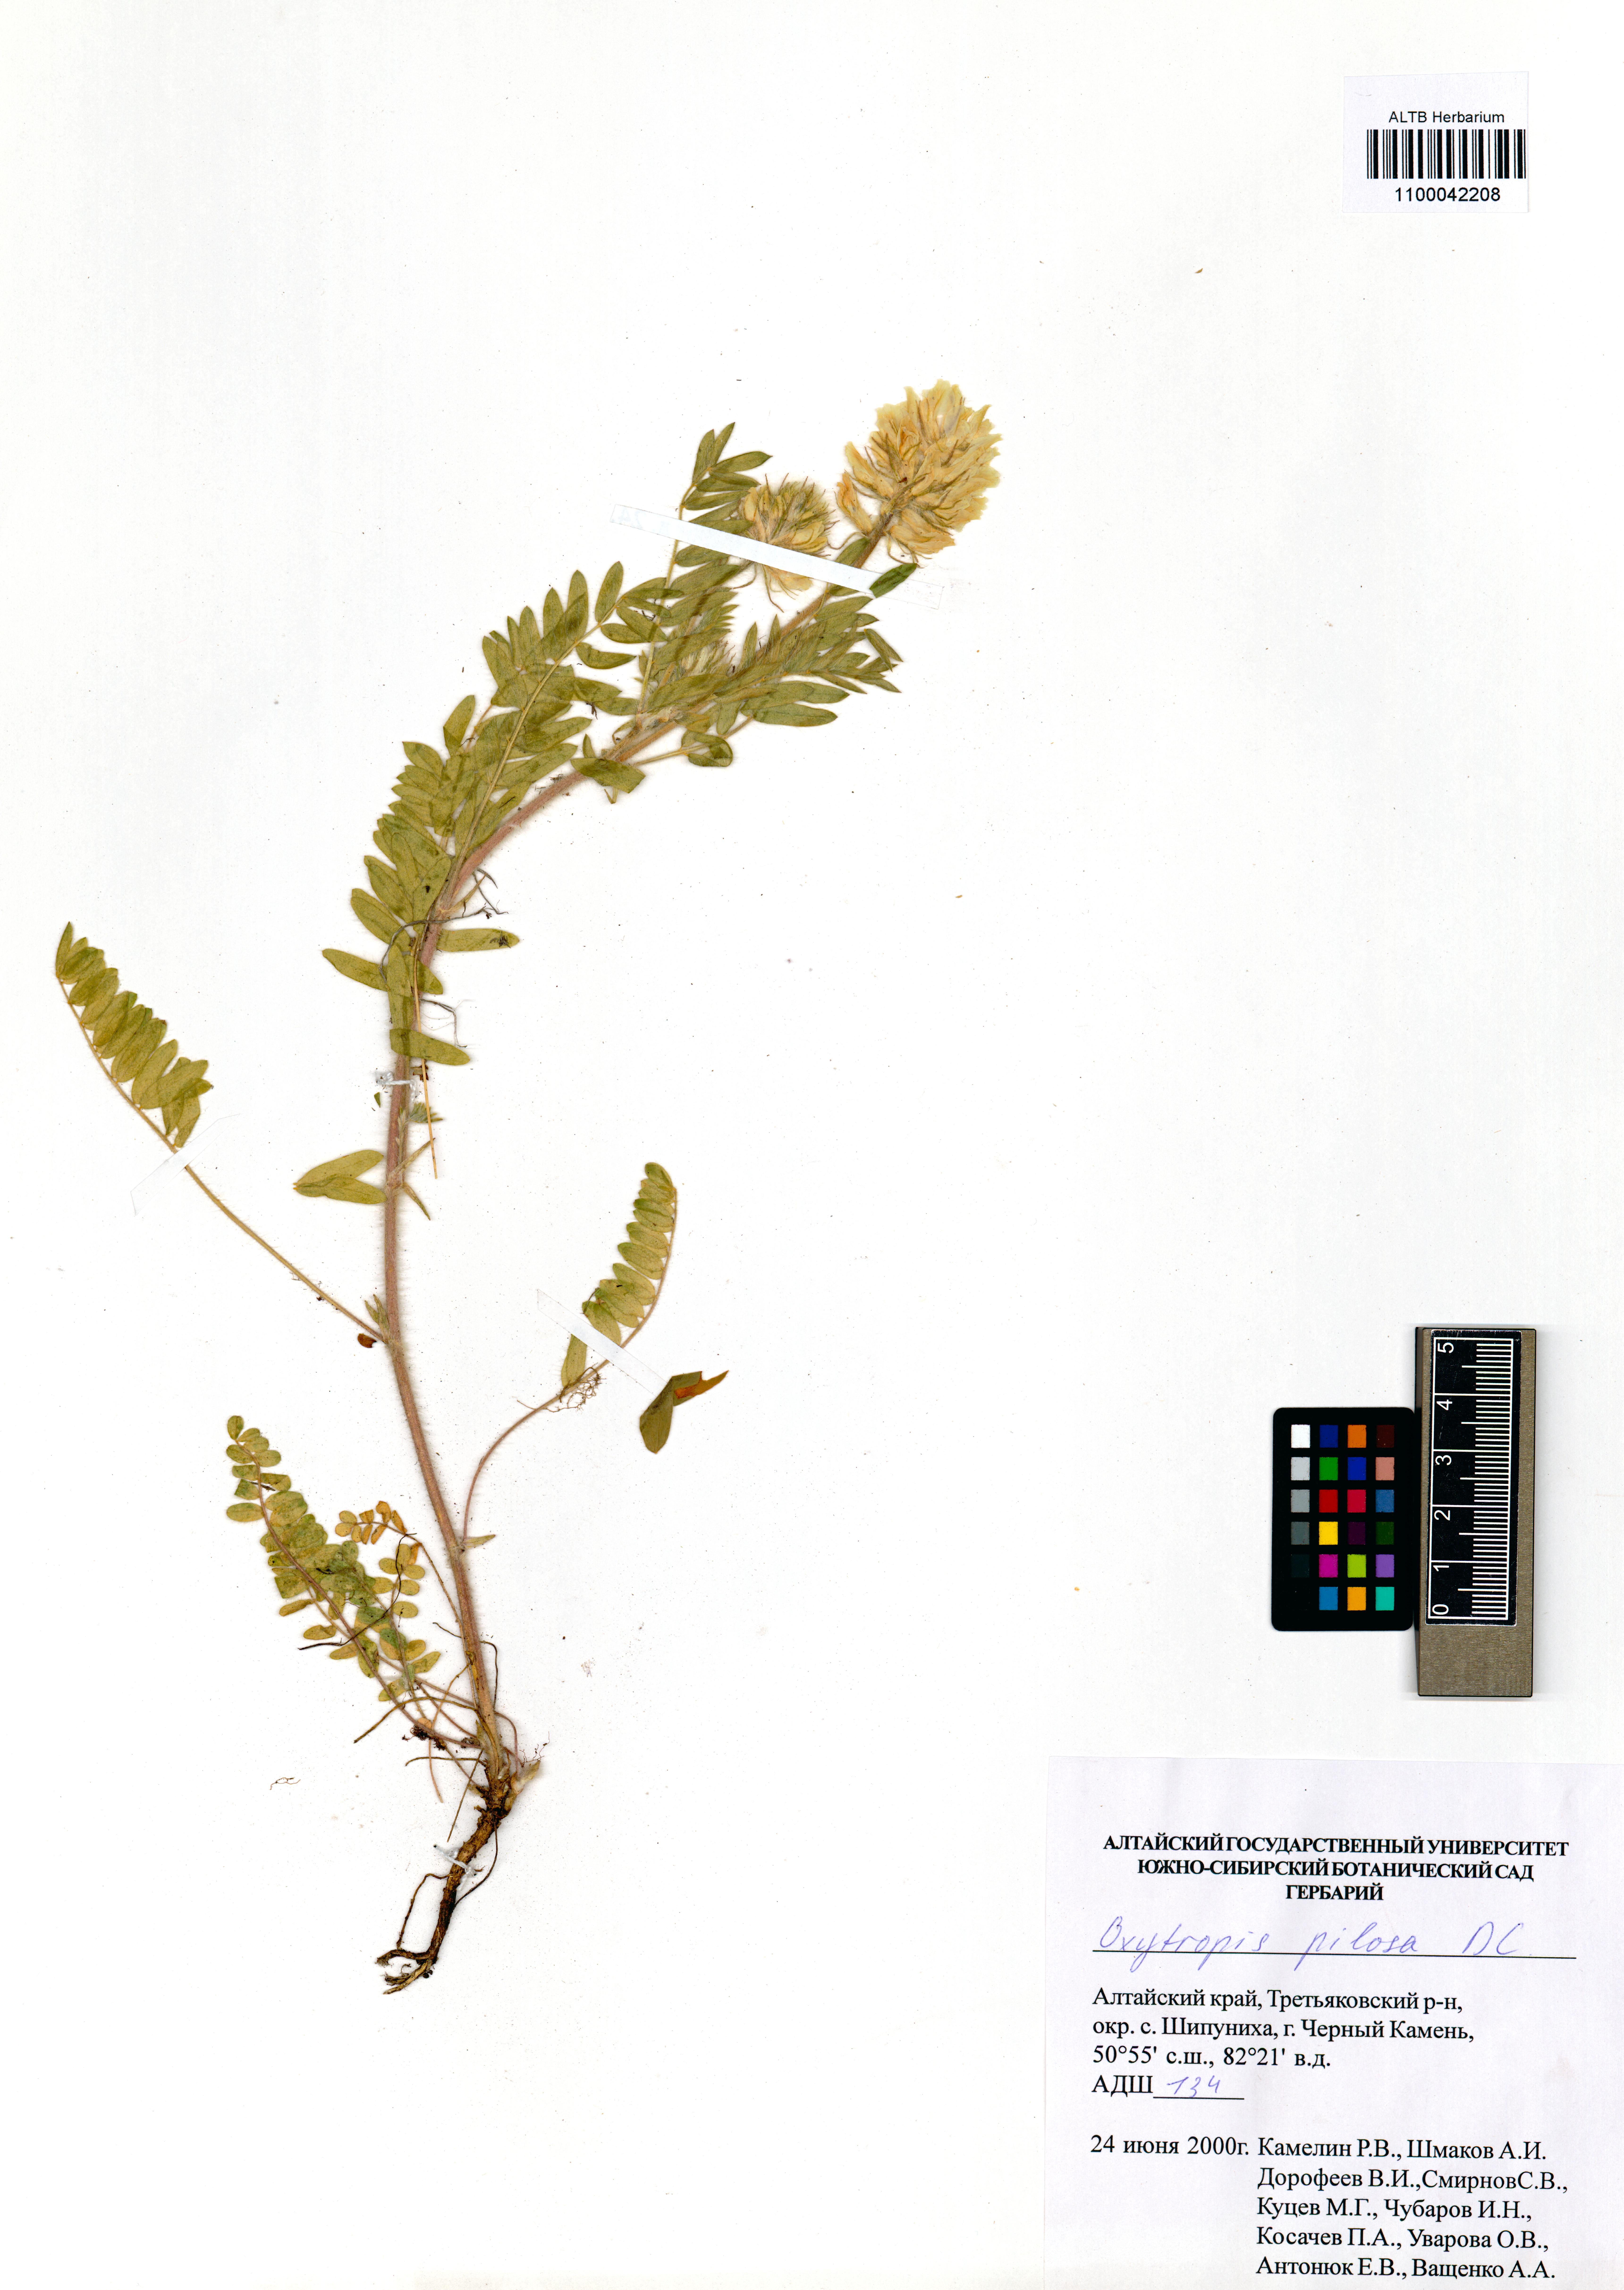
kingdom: Plantae
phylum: Tracheophyta
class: Magnoliopsida
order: Fabales
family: Fabaceae
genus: Oxytropis
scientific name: Oxytropis pilosa
